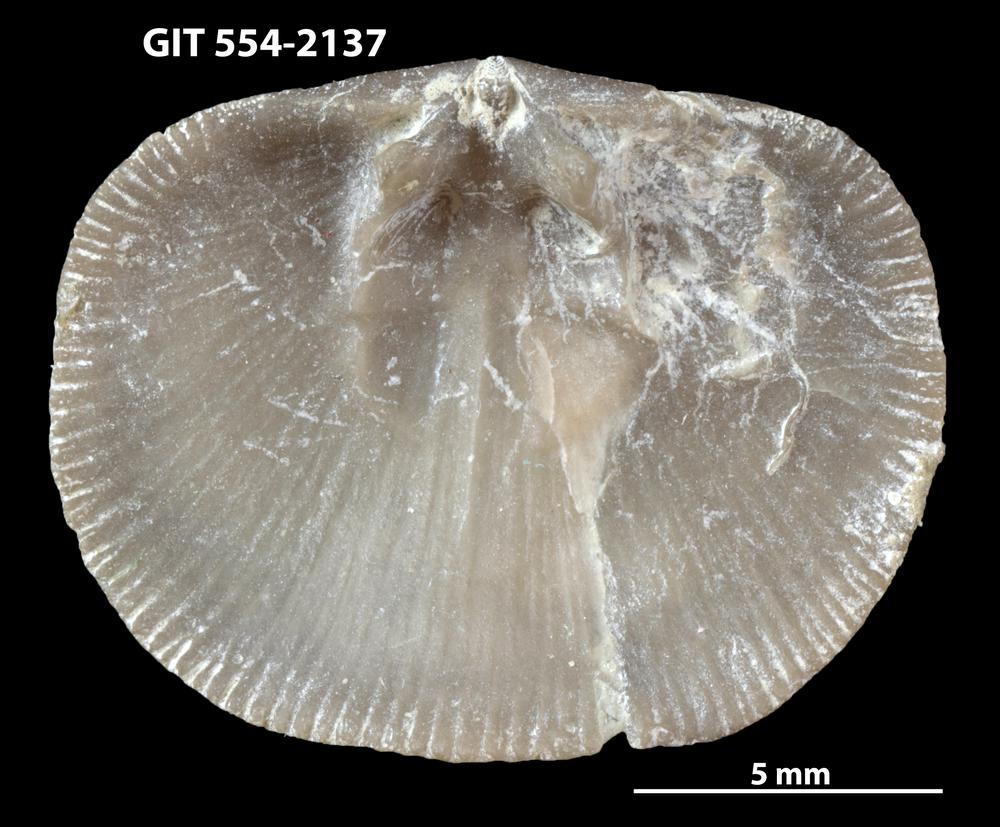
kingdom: Animalia
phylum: Brachiopoda
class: Rhynchonellata
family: Dalmanellidae
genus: Levenea
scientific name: Levenea Orthis canaliculata
